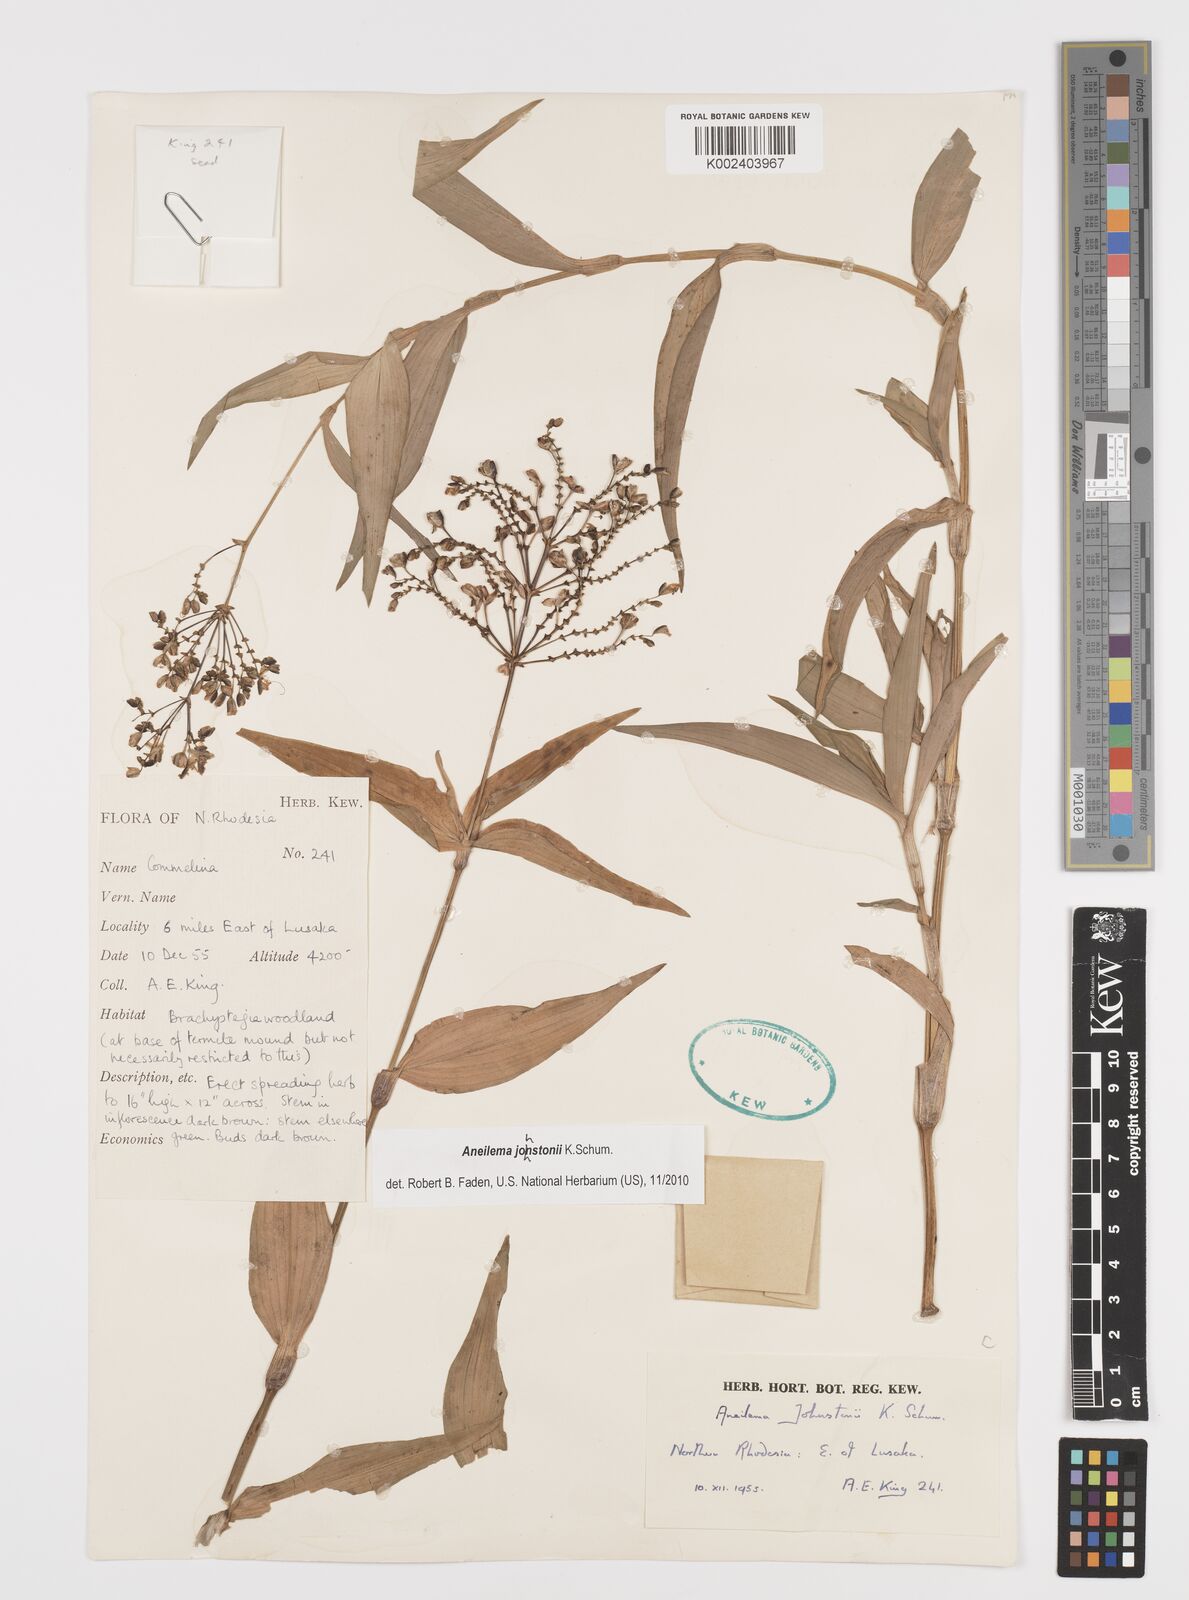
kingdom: Plantae
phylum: Tracheophyta
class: Liliopsida
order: Commelinales
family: Commelinaceae
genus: Aneilema
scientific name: Aneilema johnstonii
